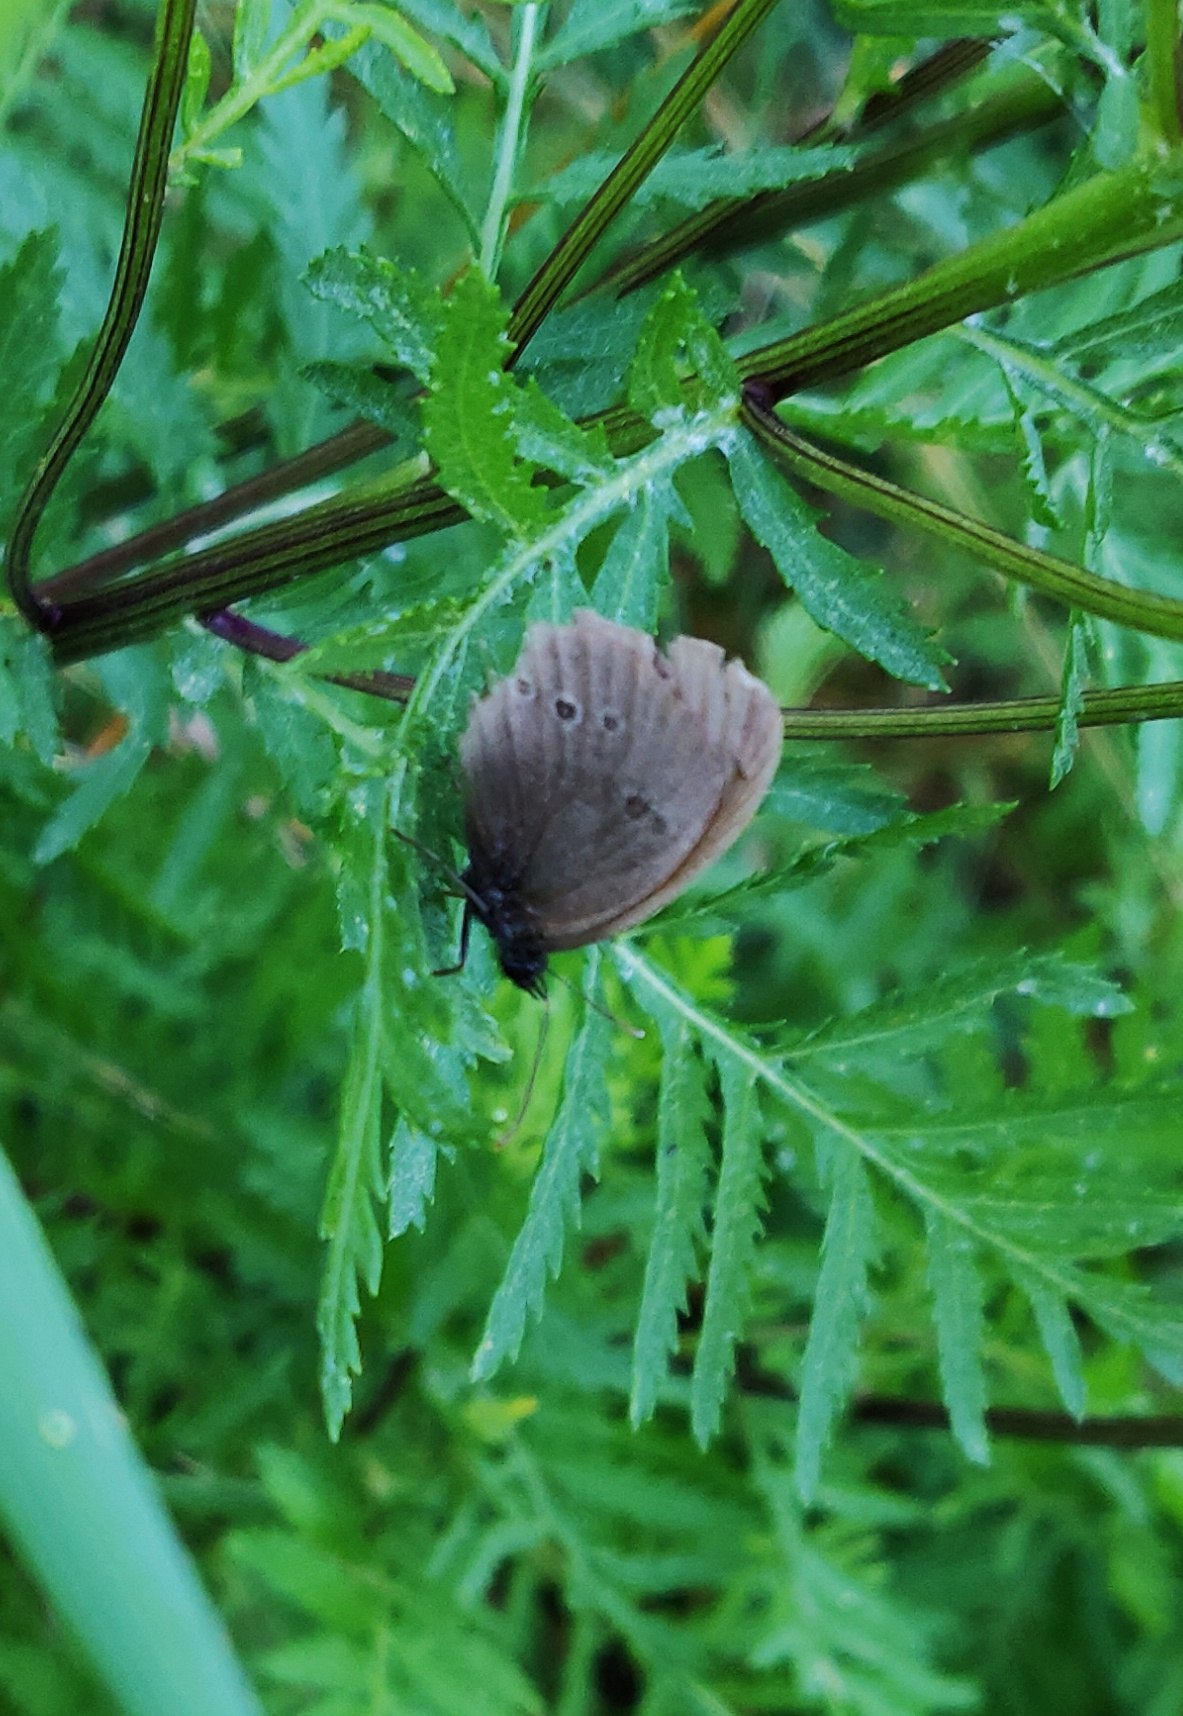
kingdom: Animalia
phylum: Arthropoda
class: Insecta
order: Lepidoptera
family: Nymphalidae
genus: Aphantopus
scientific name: Aphantopus hyperantus
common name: Engrandøje
